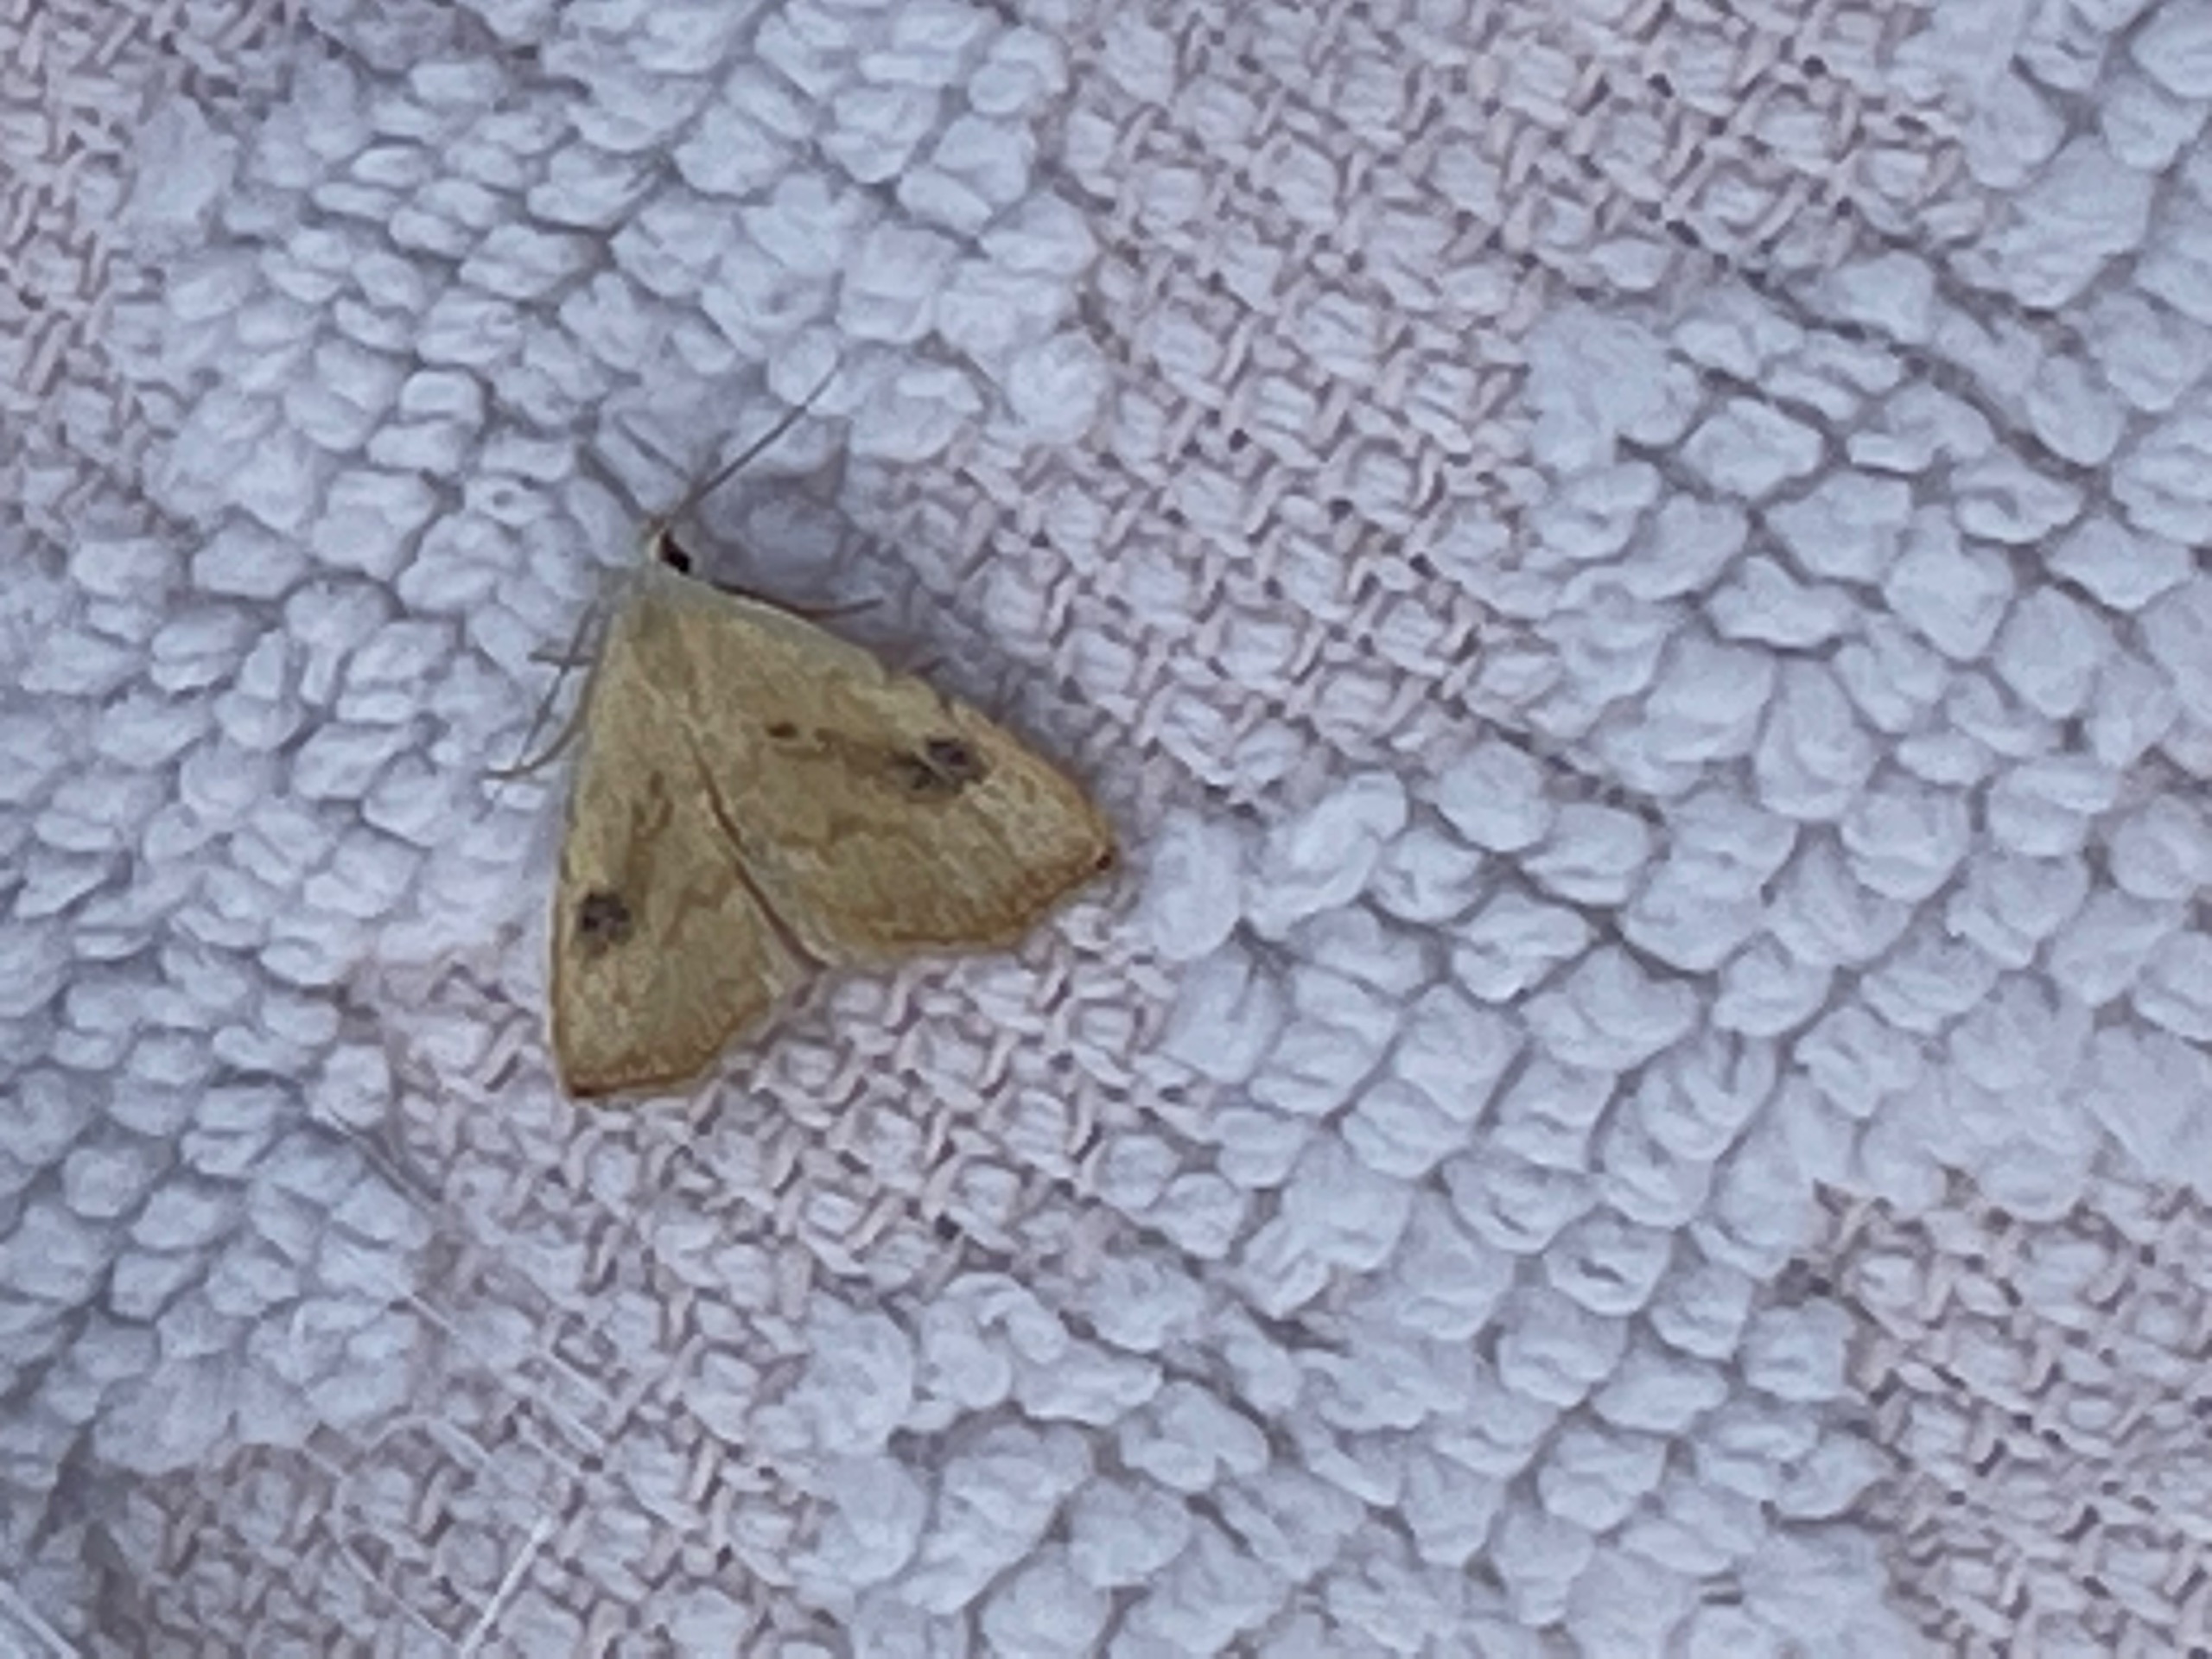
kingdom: Animalia
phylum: Arthropoda
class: Insecta
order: Lepidoptera
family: Erebidae
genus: Rivula
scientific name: Rivula sericealis
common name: Lille å-ugle
